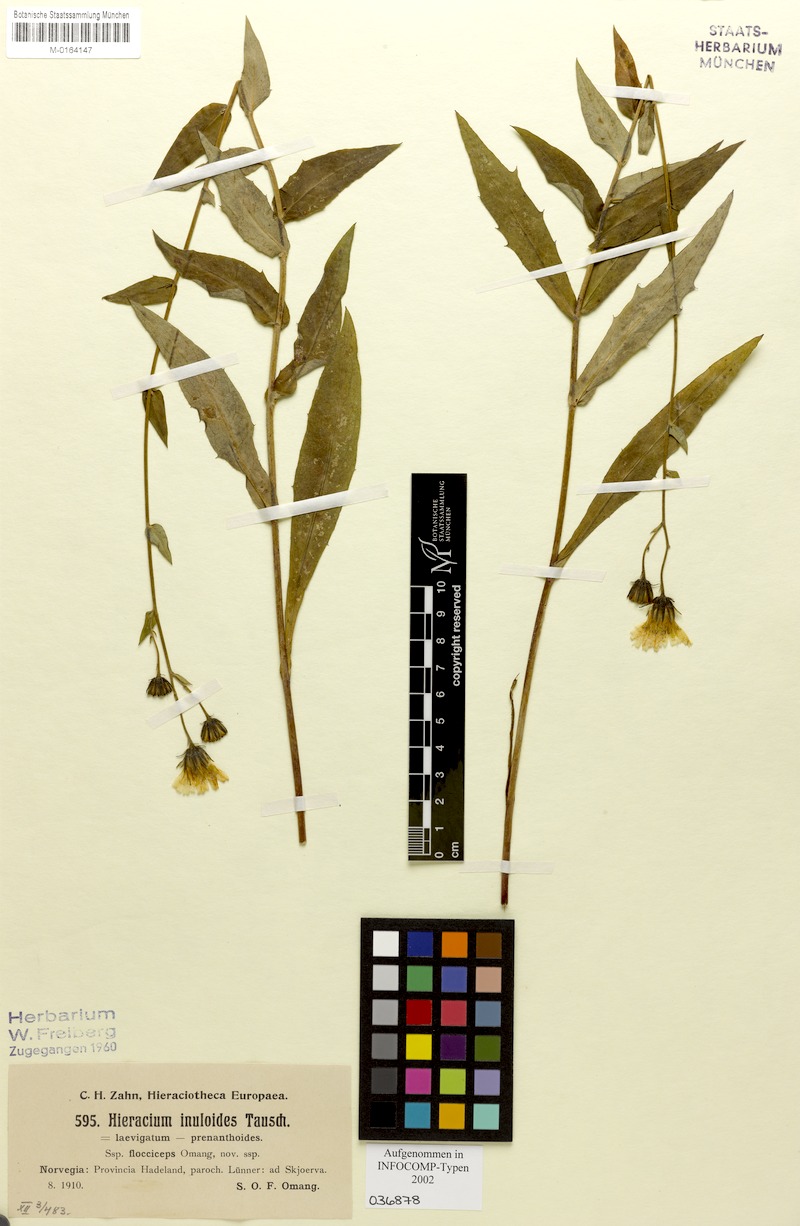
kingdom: Plantae
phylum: Tracheophyta
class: Magnoliopsida
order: Asterales
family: Asteraceae
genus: Hieracium
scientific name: Hieracium inuloides
